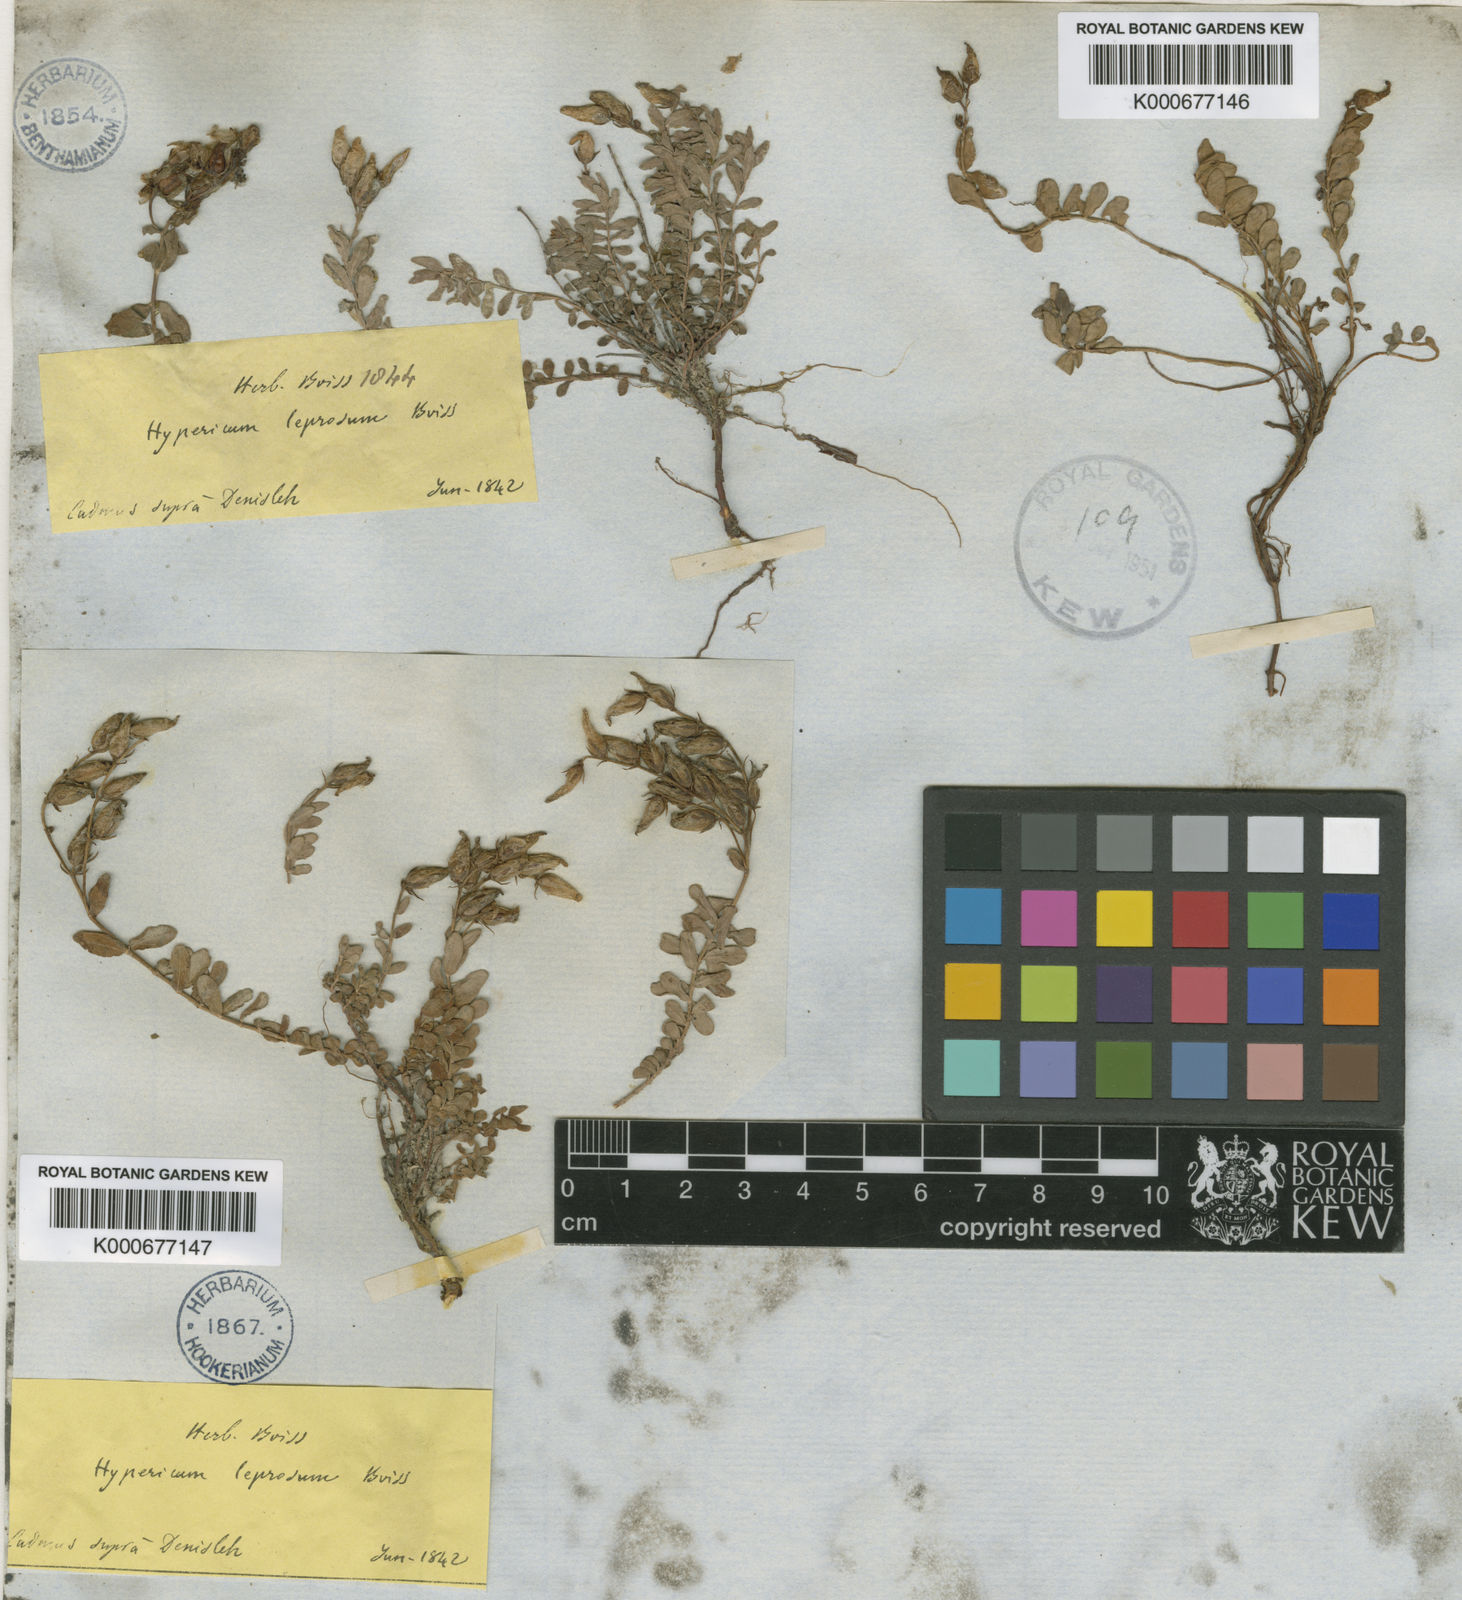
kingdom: Plantae
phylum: Tracheophyta
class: Magnoliopsida
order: Malpighiales
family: Hypericaceae
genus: Hypericum
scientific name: Hypericum aviculariifolium
